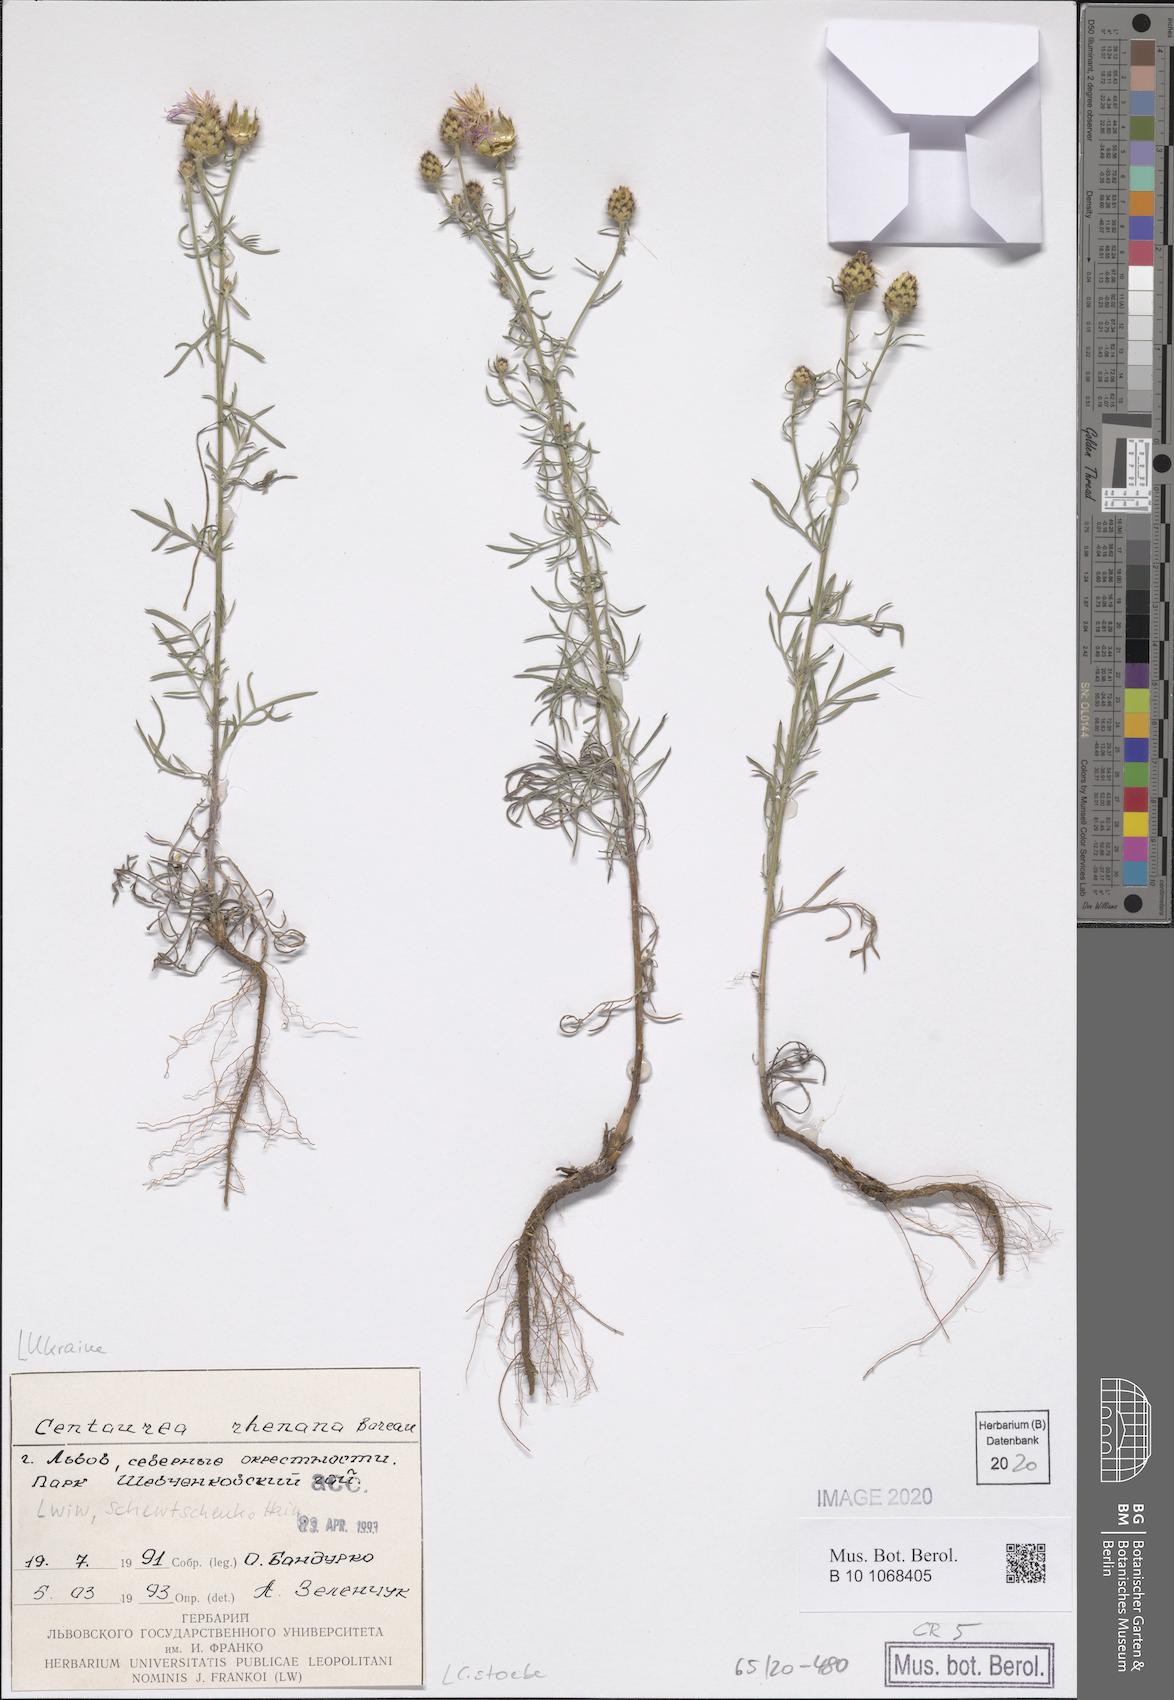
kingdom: Plantae
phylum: Tracheophyta
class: Magnoliopsida
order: Asterales
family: Asteraceae
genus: Centaurea
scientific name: Centaurea stoebe
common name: Spotted knapweed
